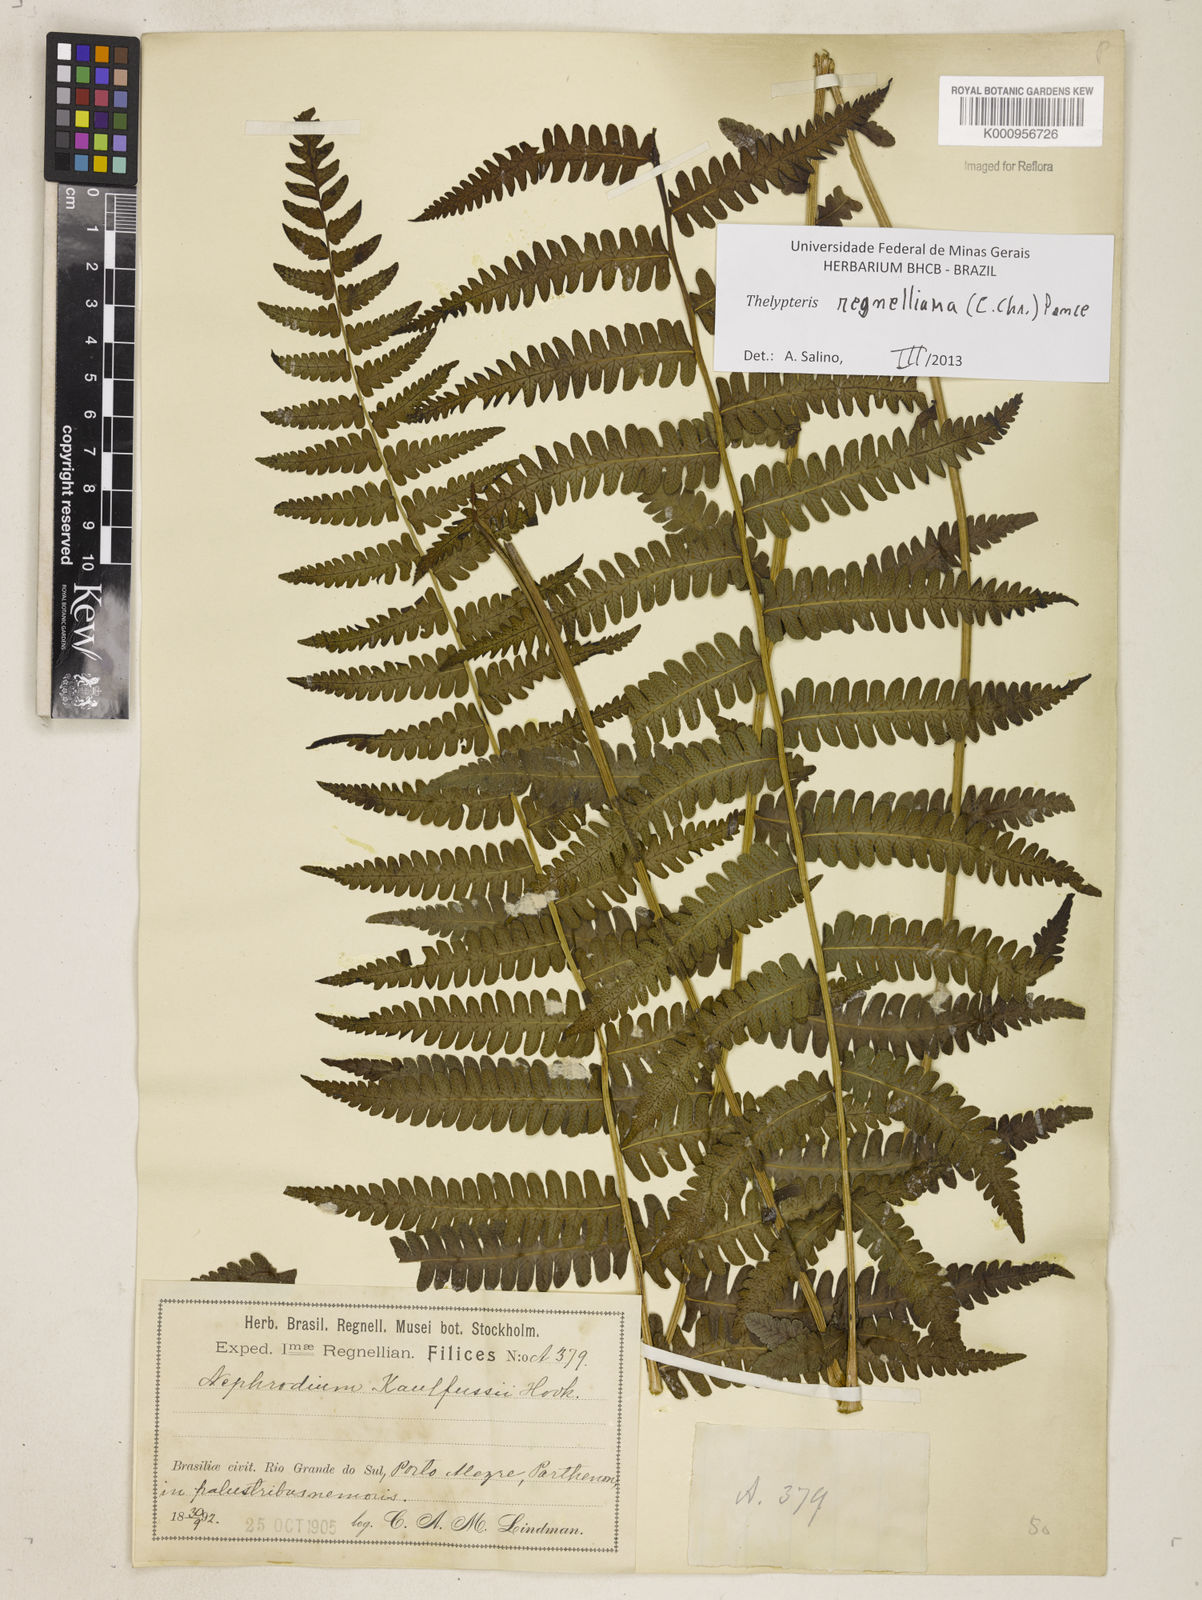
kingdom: Plantae
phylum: Tracheophyta
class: Polypodiopsida
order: Polypodiales
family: Thelypteridaceae
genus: Amauropelta
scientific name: Amauropelta
